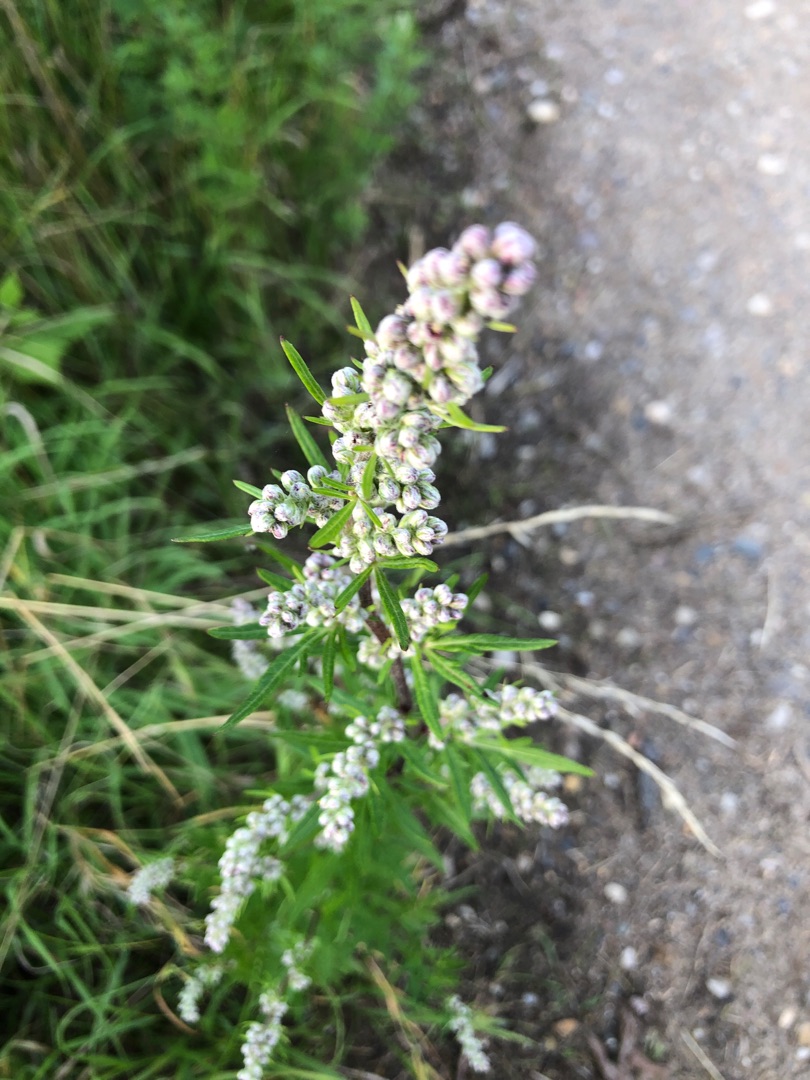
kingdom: Plantae
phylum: Tracheophyta
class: Magnoliopsida
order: Asterales
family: Asteraceae
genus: Artemisia
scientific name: Artemisia vulgaris
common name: Grå-bynke
